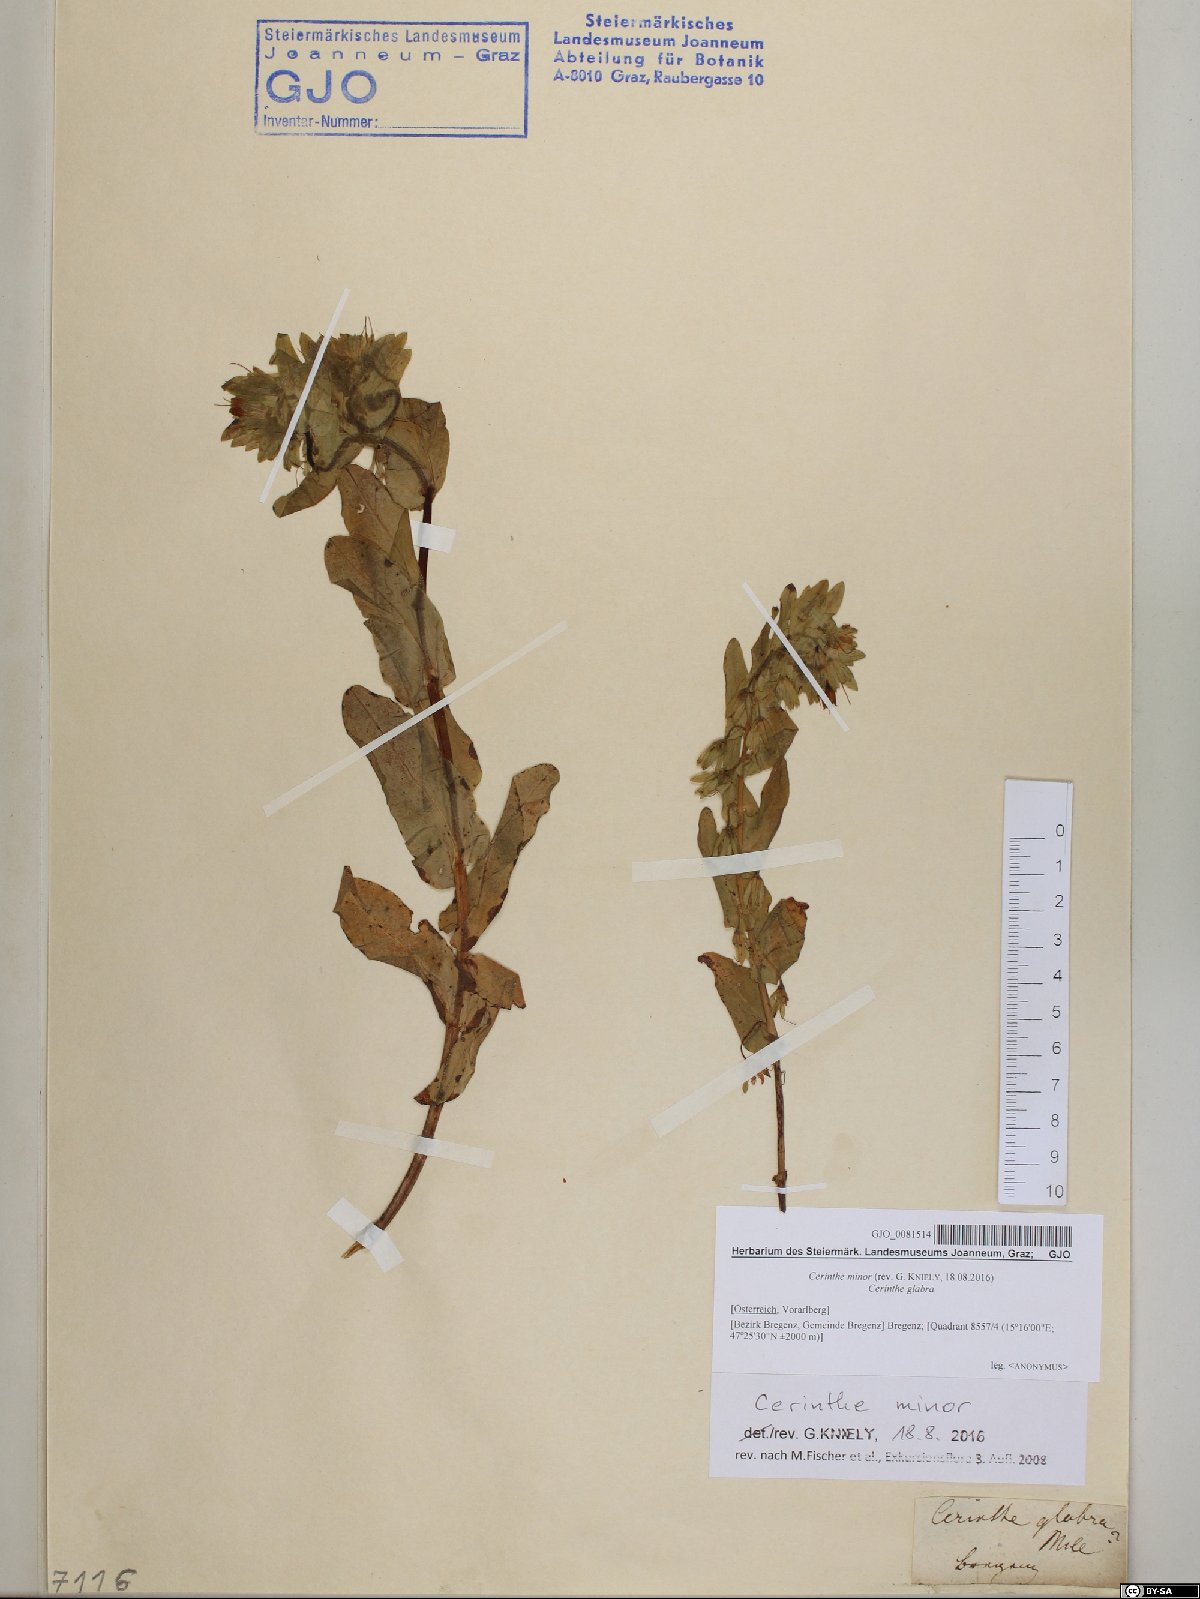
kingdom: Plantae
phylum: Tracheophyta
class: Magnoliopsida
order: Boraginales
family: Boraginaceae
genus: Cerinthe
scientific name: Cerinthe minor
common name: Lesser honeywort
